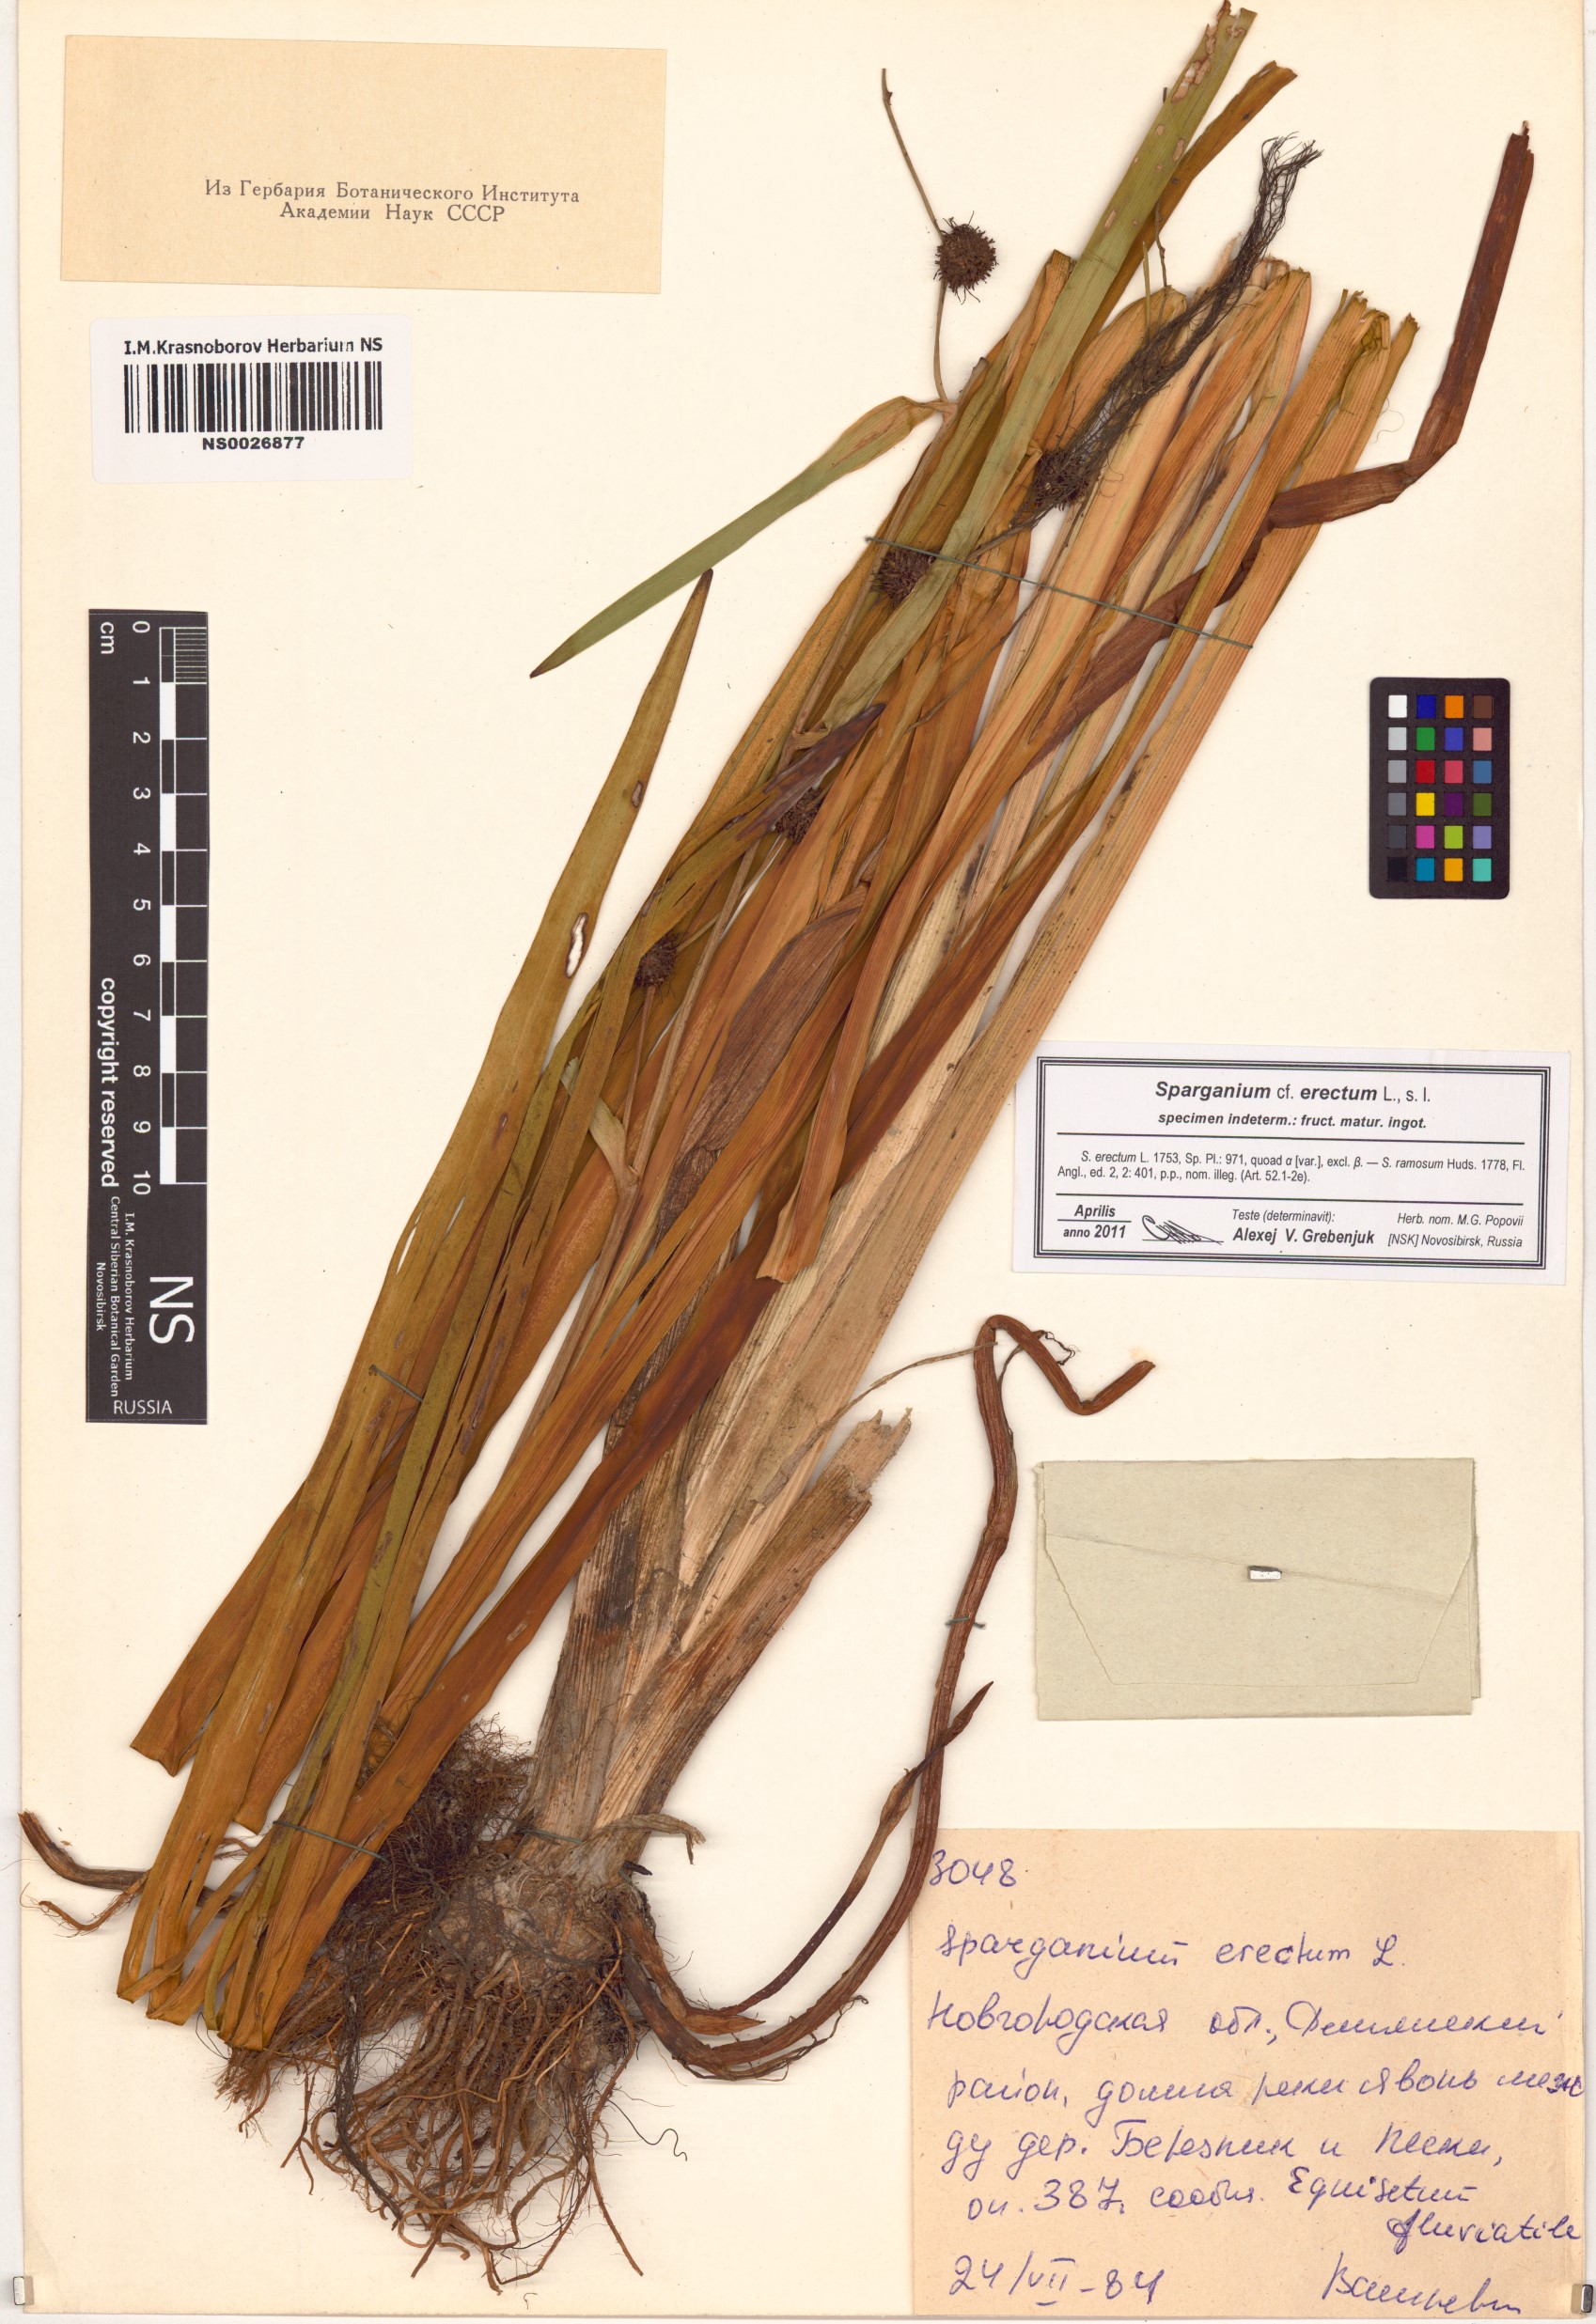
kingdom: Plantae
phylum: Tracheophyta
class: Liliopsida
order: Poales
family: Typhaceae
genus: Sparganium
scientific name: Sparganium erectum
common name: Branched bur-reed
